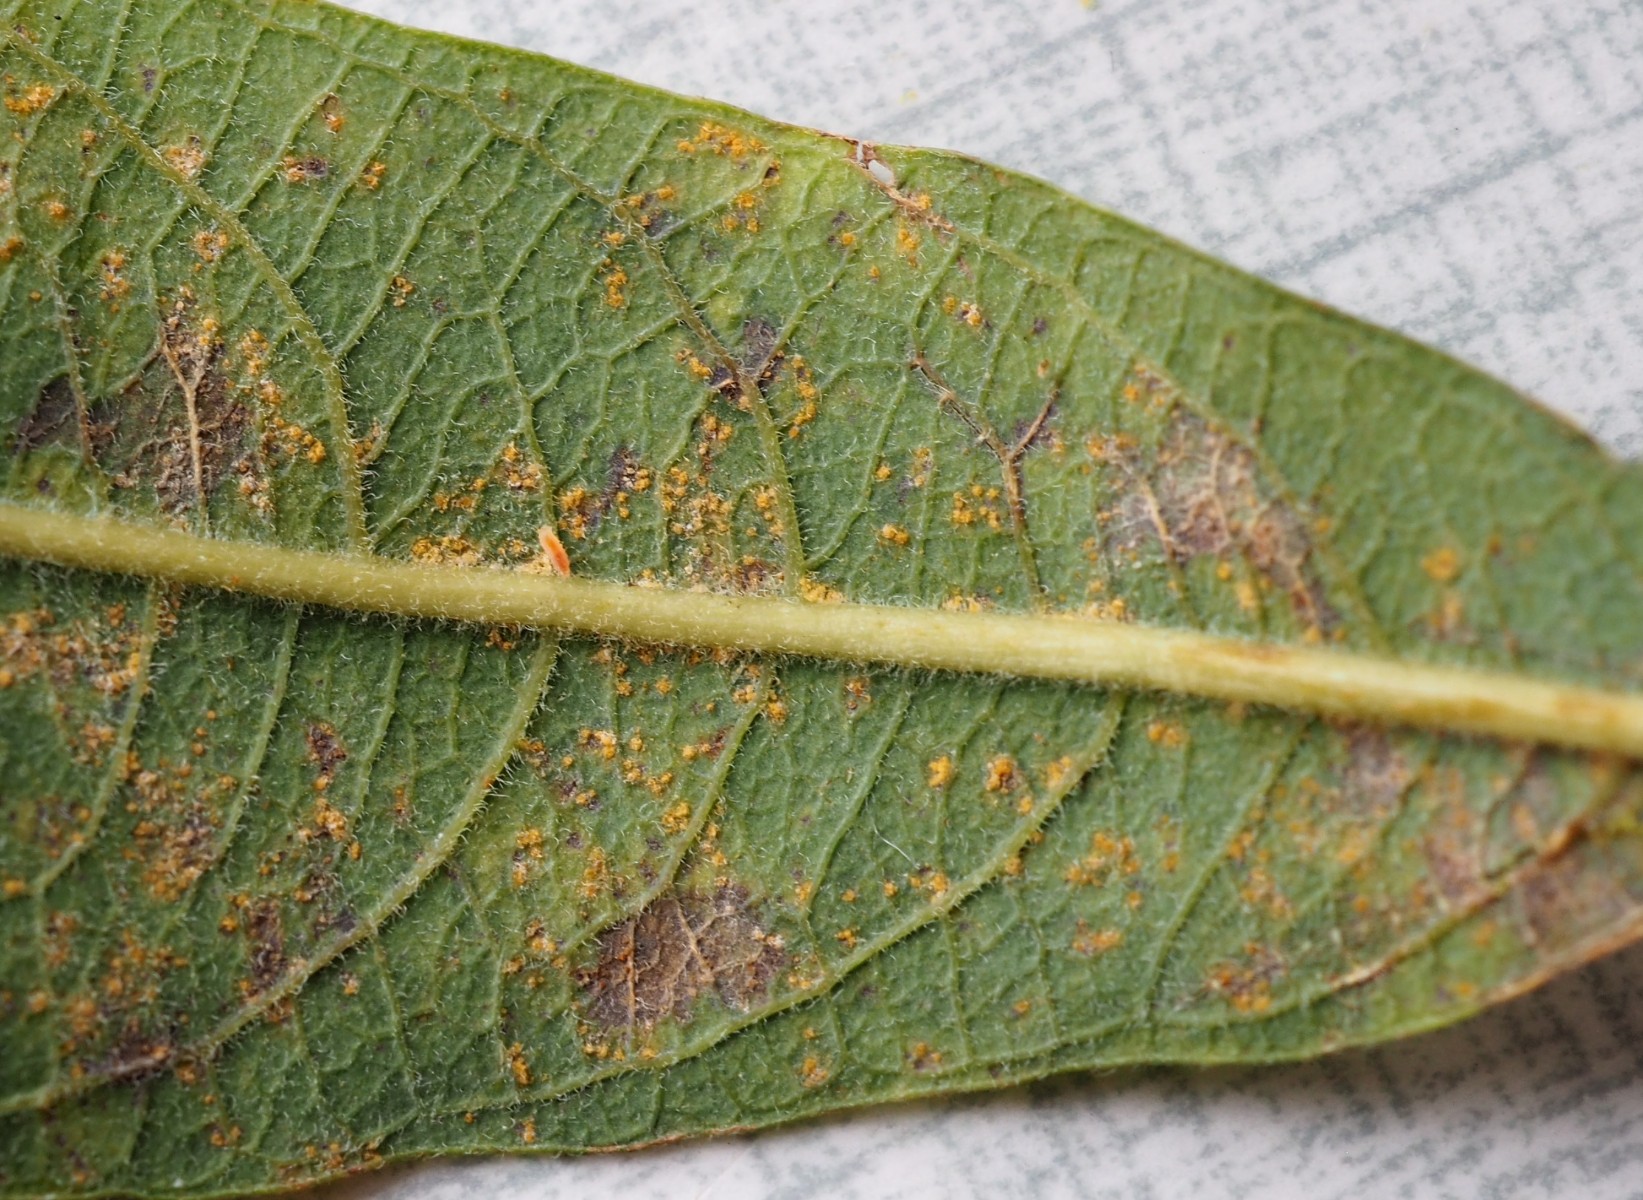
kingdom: Fungi
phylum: Basidiomycota
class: Pucciniomycetes
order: Pucciniales
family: Melampsoraceae
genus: Melampsora
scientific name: Melampsora epitea
